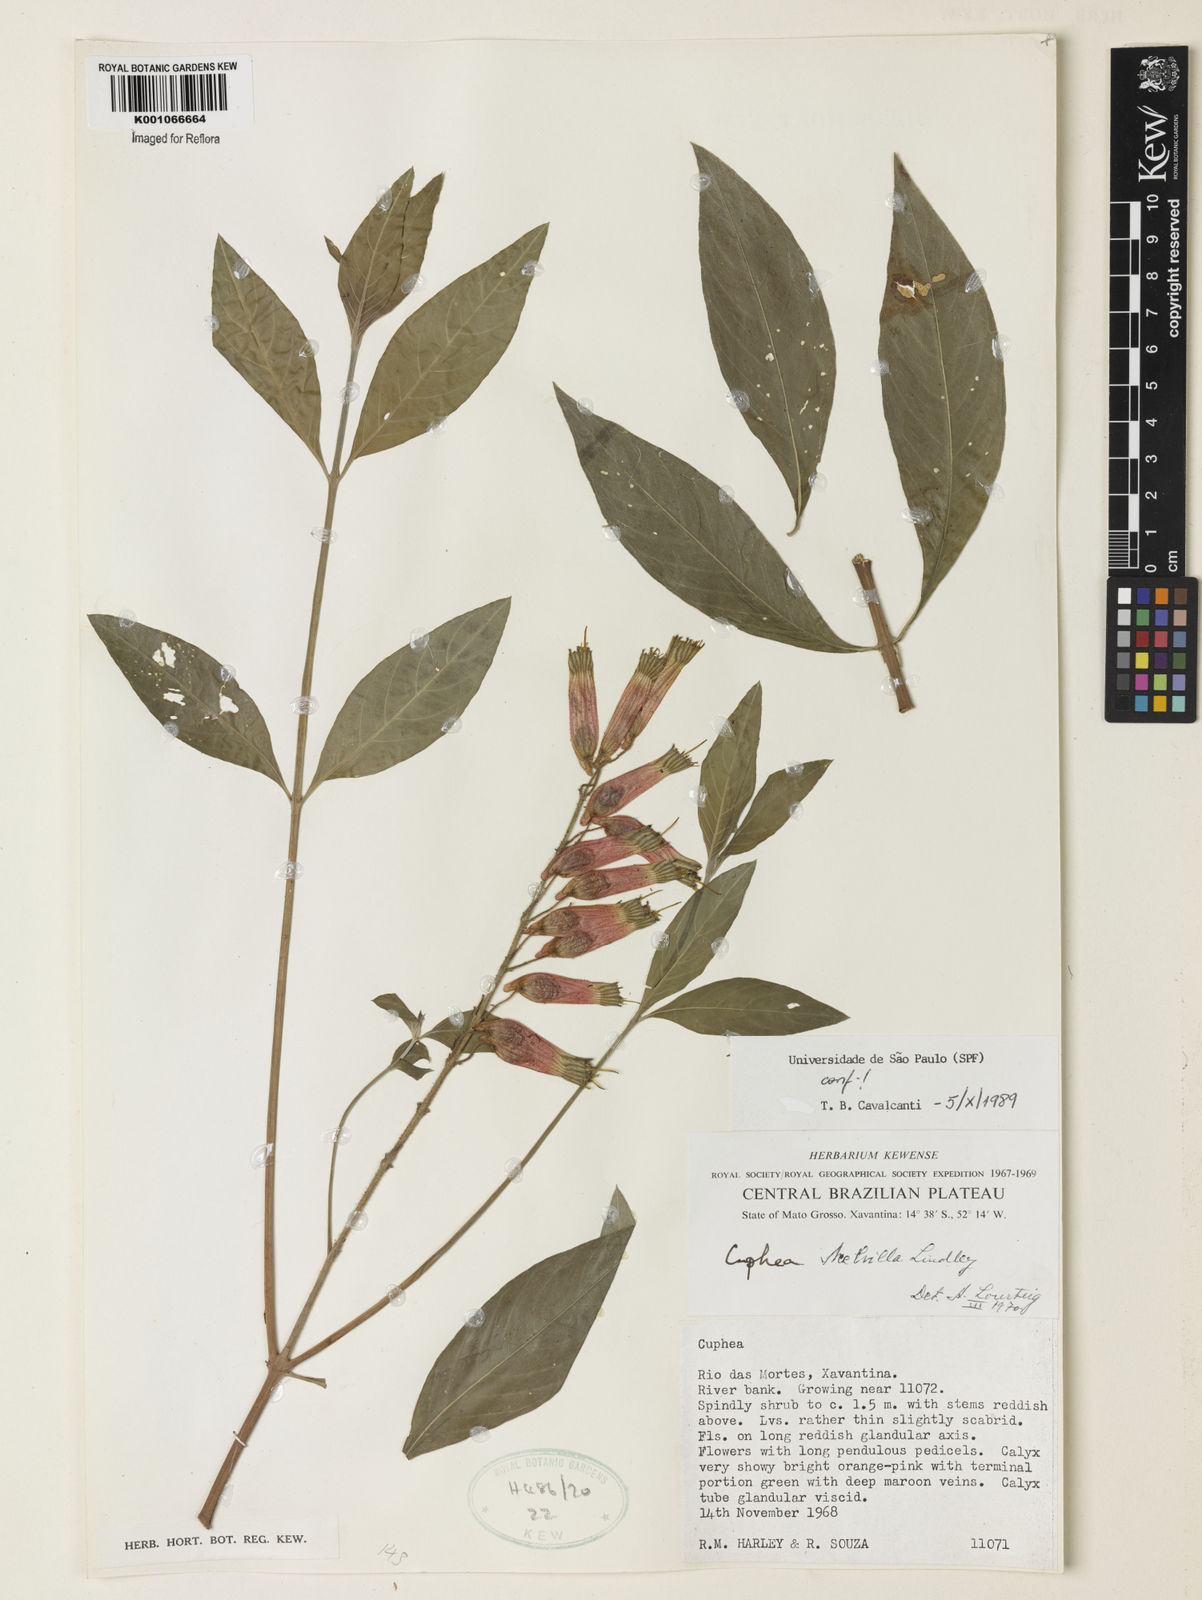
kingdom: Plantae
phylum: Tracheophyta
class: Magnoliopsida
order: Myrtales
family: Lythraceae
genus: Cuphea
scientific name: Cuphea melvilla
